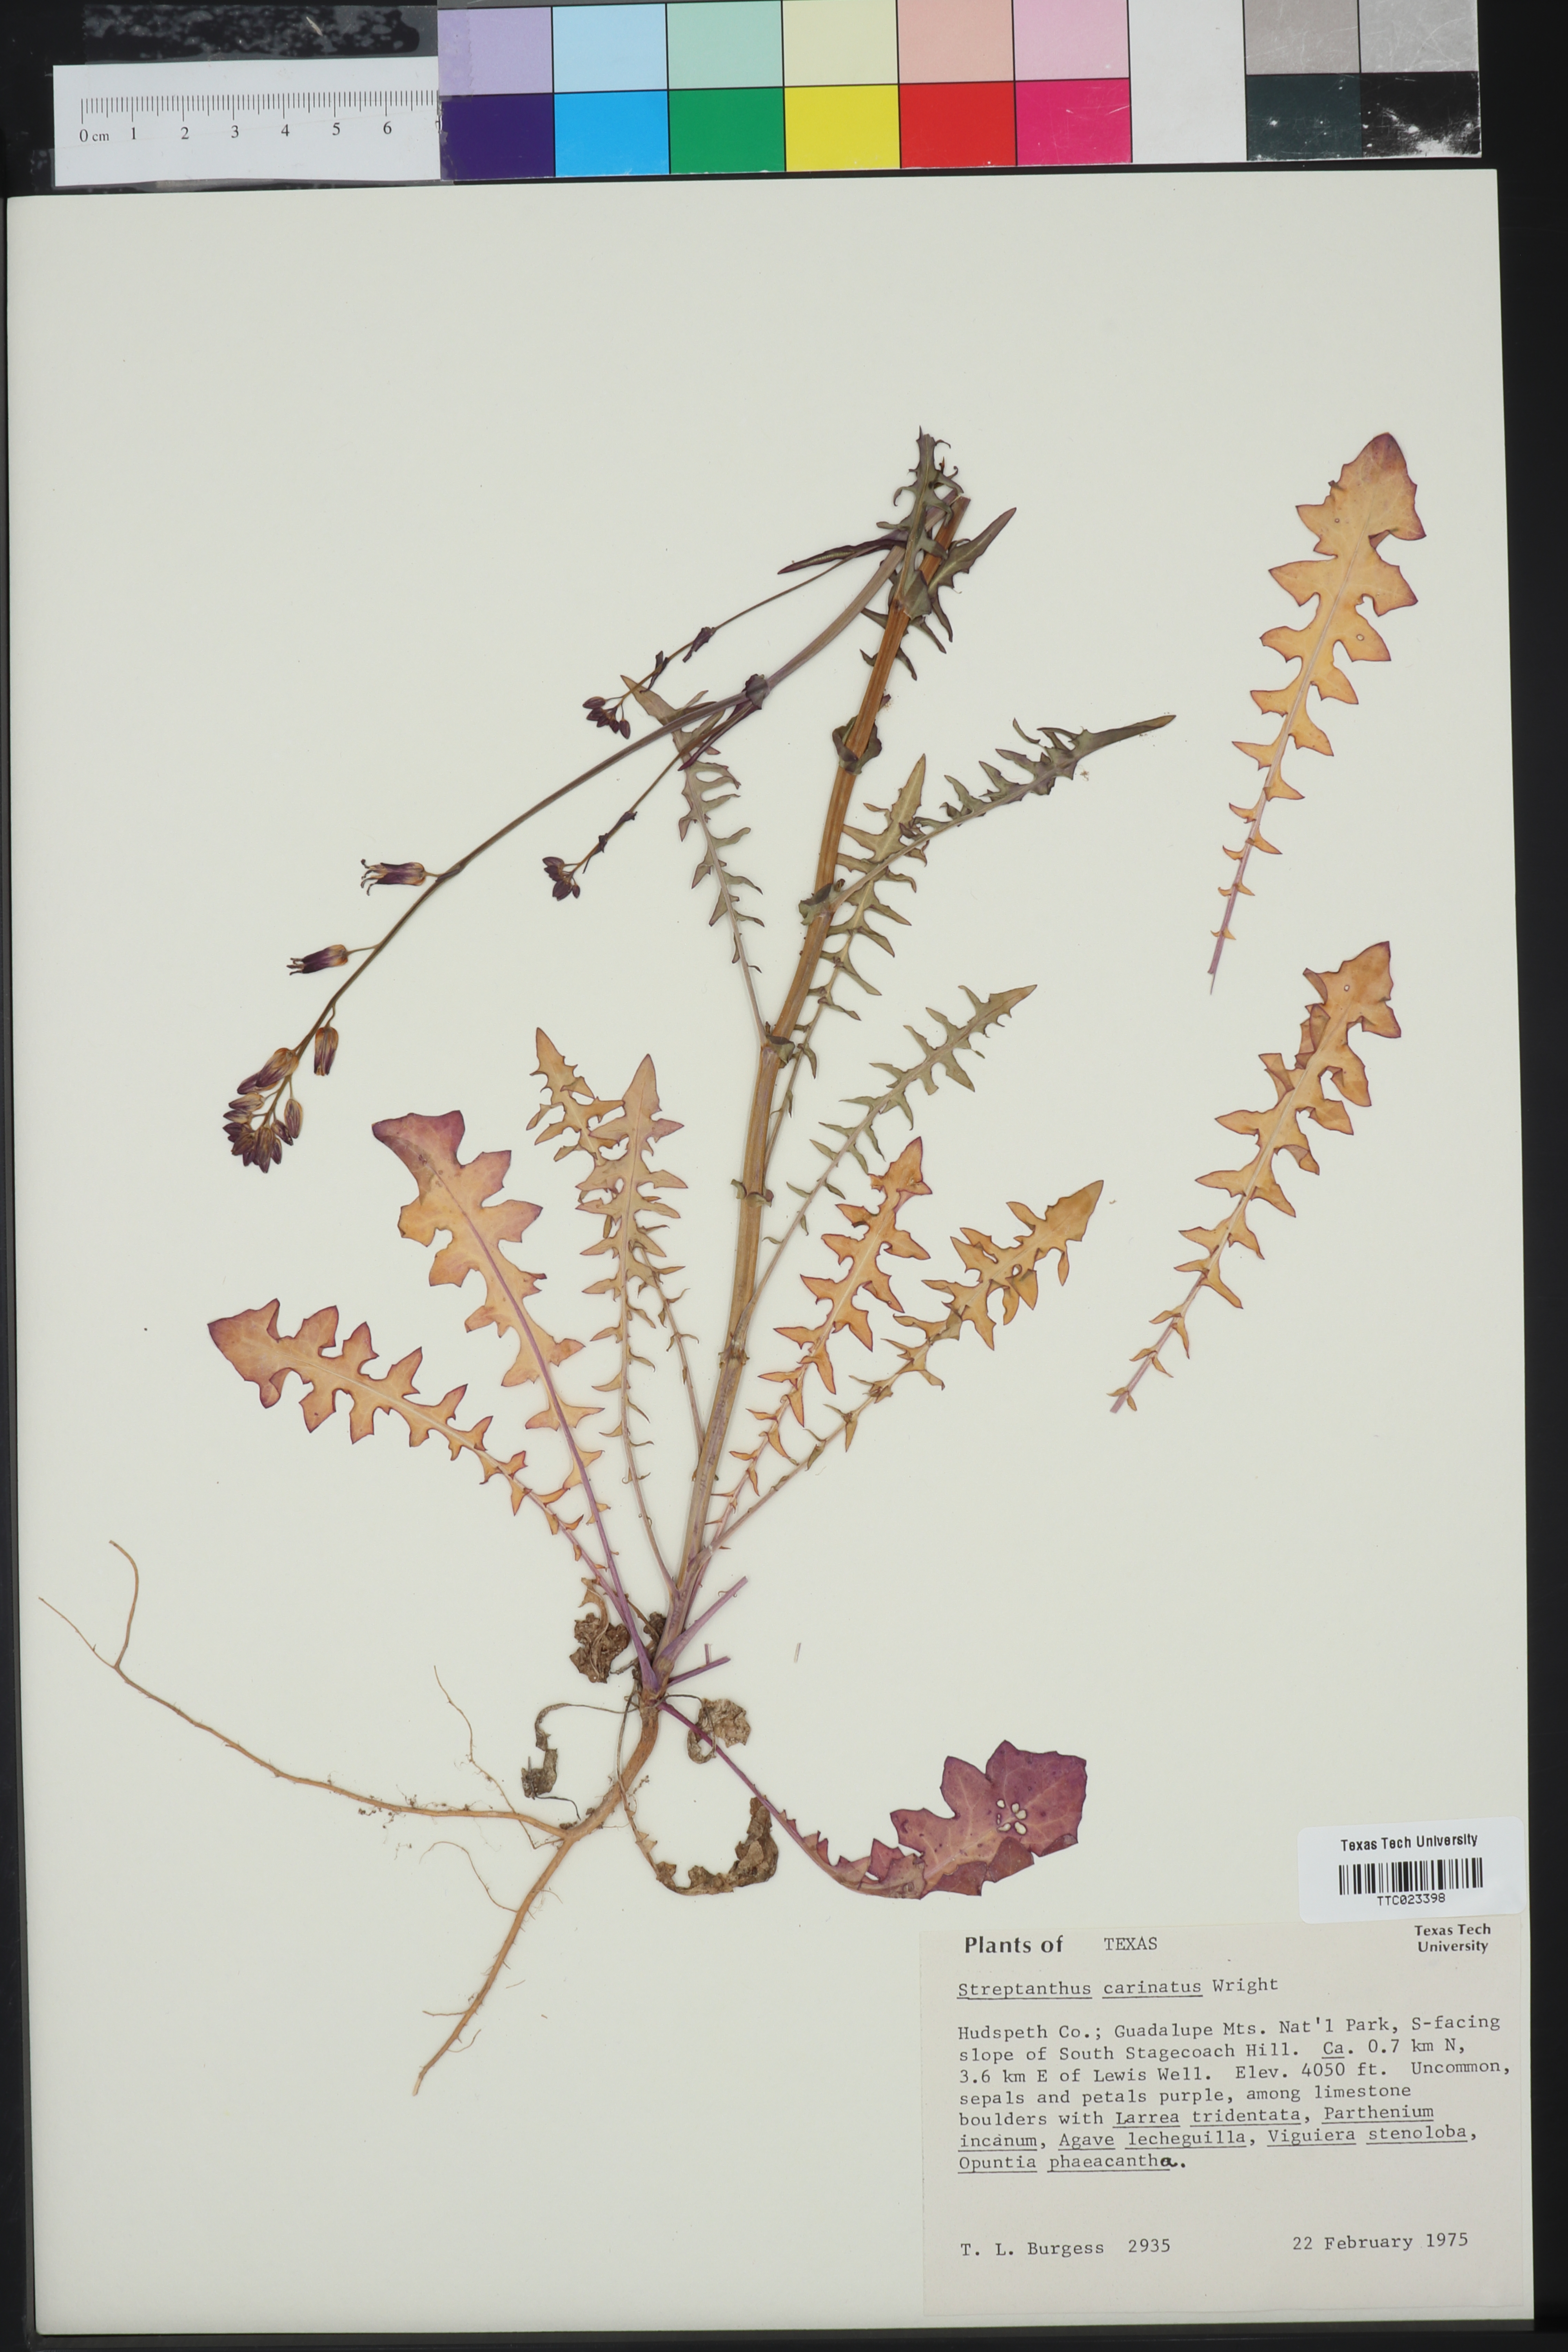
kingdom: Plantae
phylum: Tracheophyta
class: Magnoliopsida
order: Brassicales
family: Brassicaceae
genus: Streptanthus
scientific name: Streptanthus carinatus
